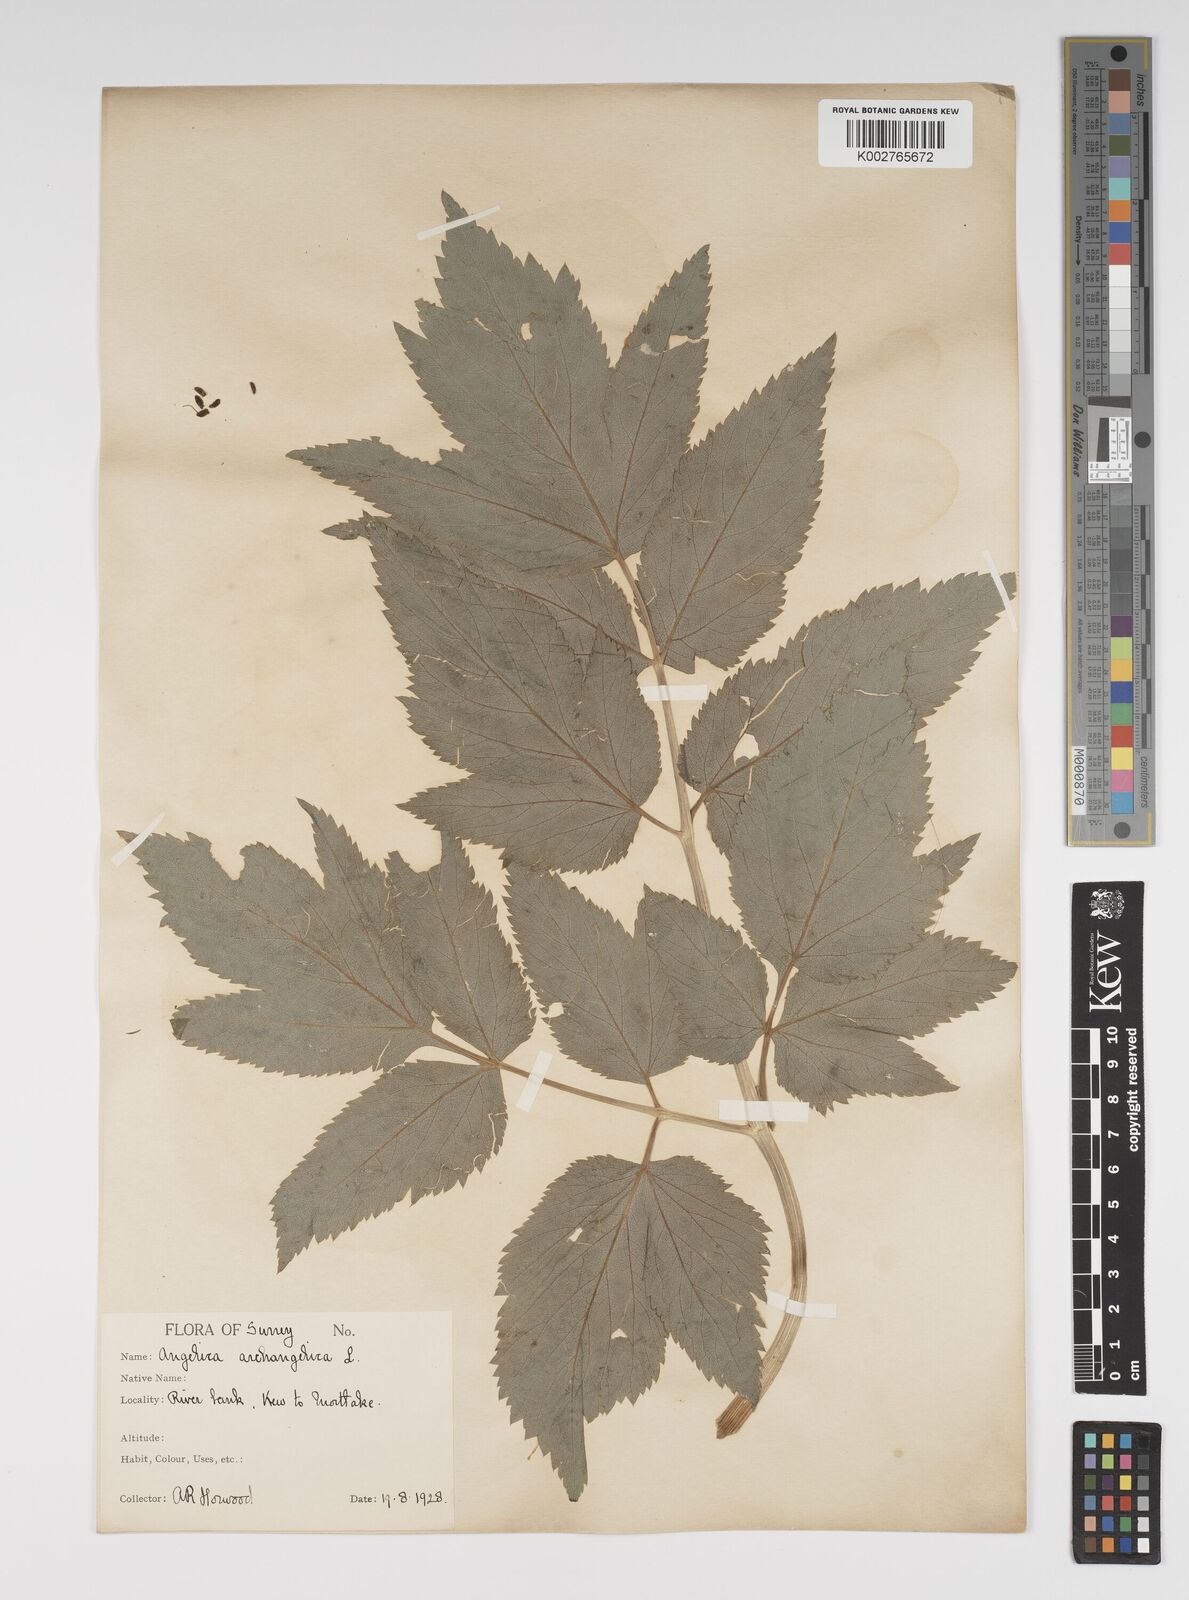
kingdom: Plantae
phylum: Tracheophyta
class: Magnoliopsida
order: Apiales
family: Apiaceae
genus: Angelica
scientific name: Angelica archangelica
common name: Garden angelica
